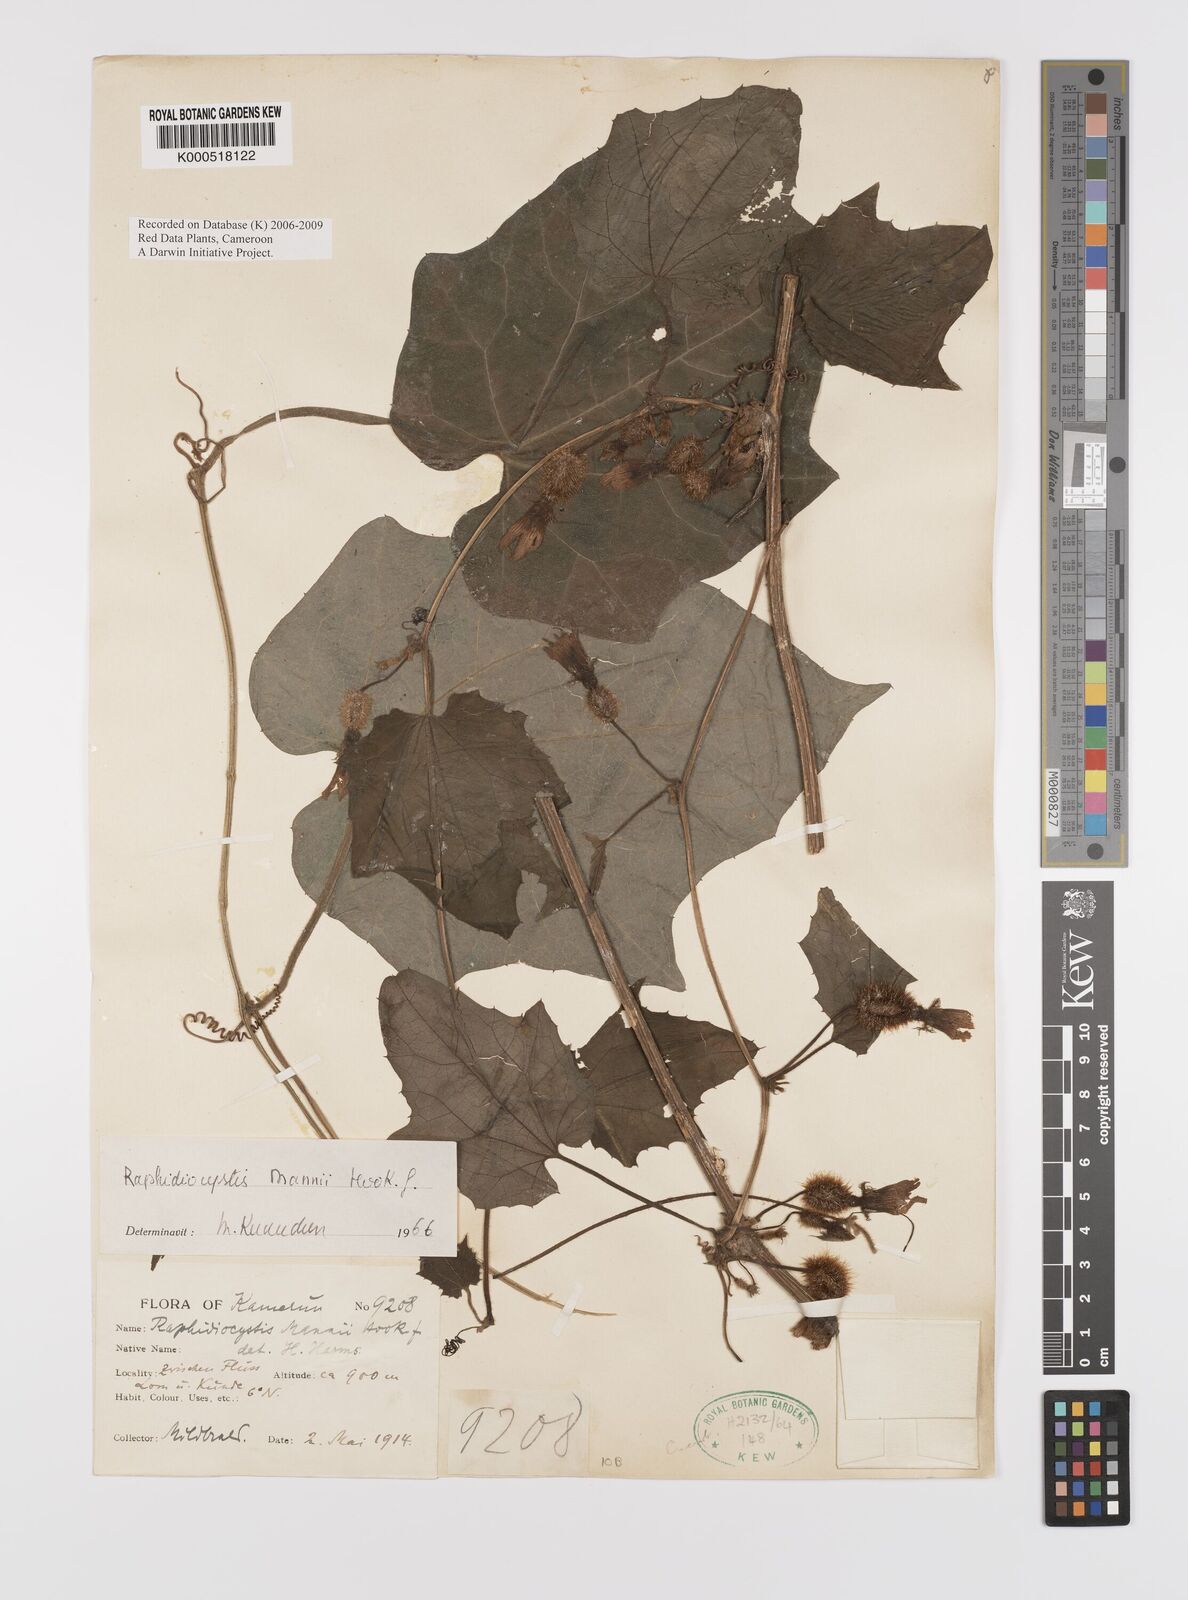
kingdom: Plantae
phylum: Tracheophyta
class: Magnoliopsida
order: Cucurbitales
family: Cucurbitaceae
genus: Raphidiocystis
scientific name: Raphidiocystis mannii
